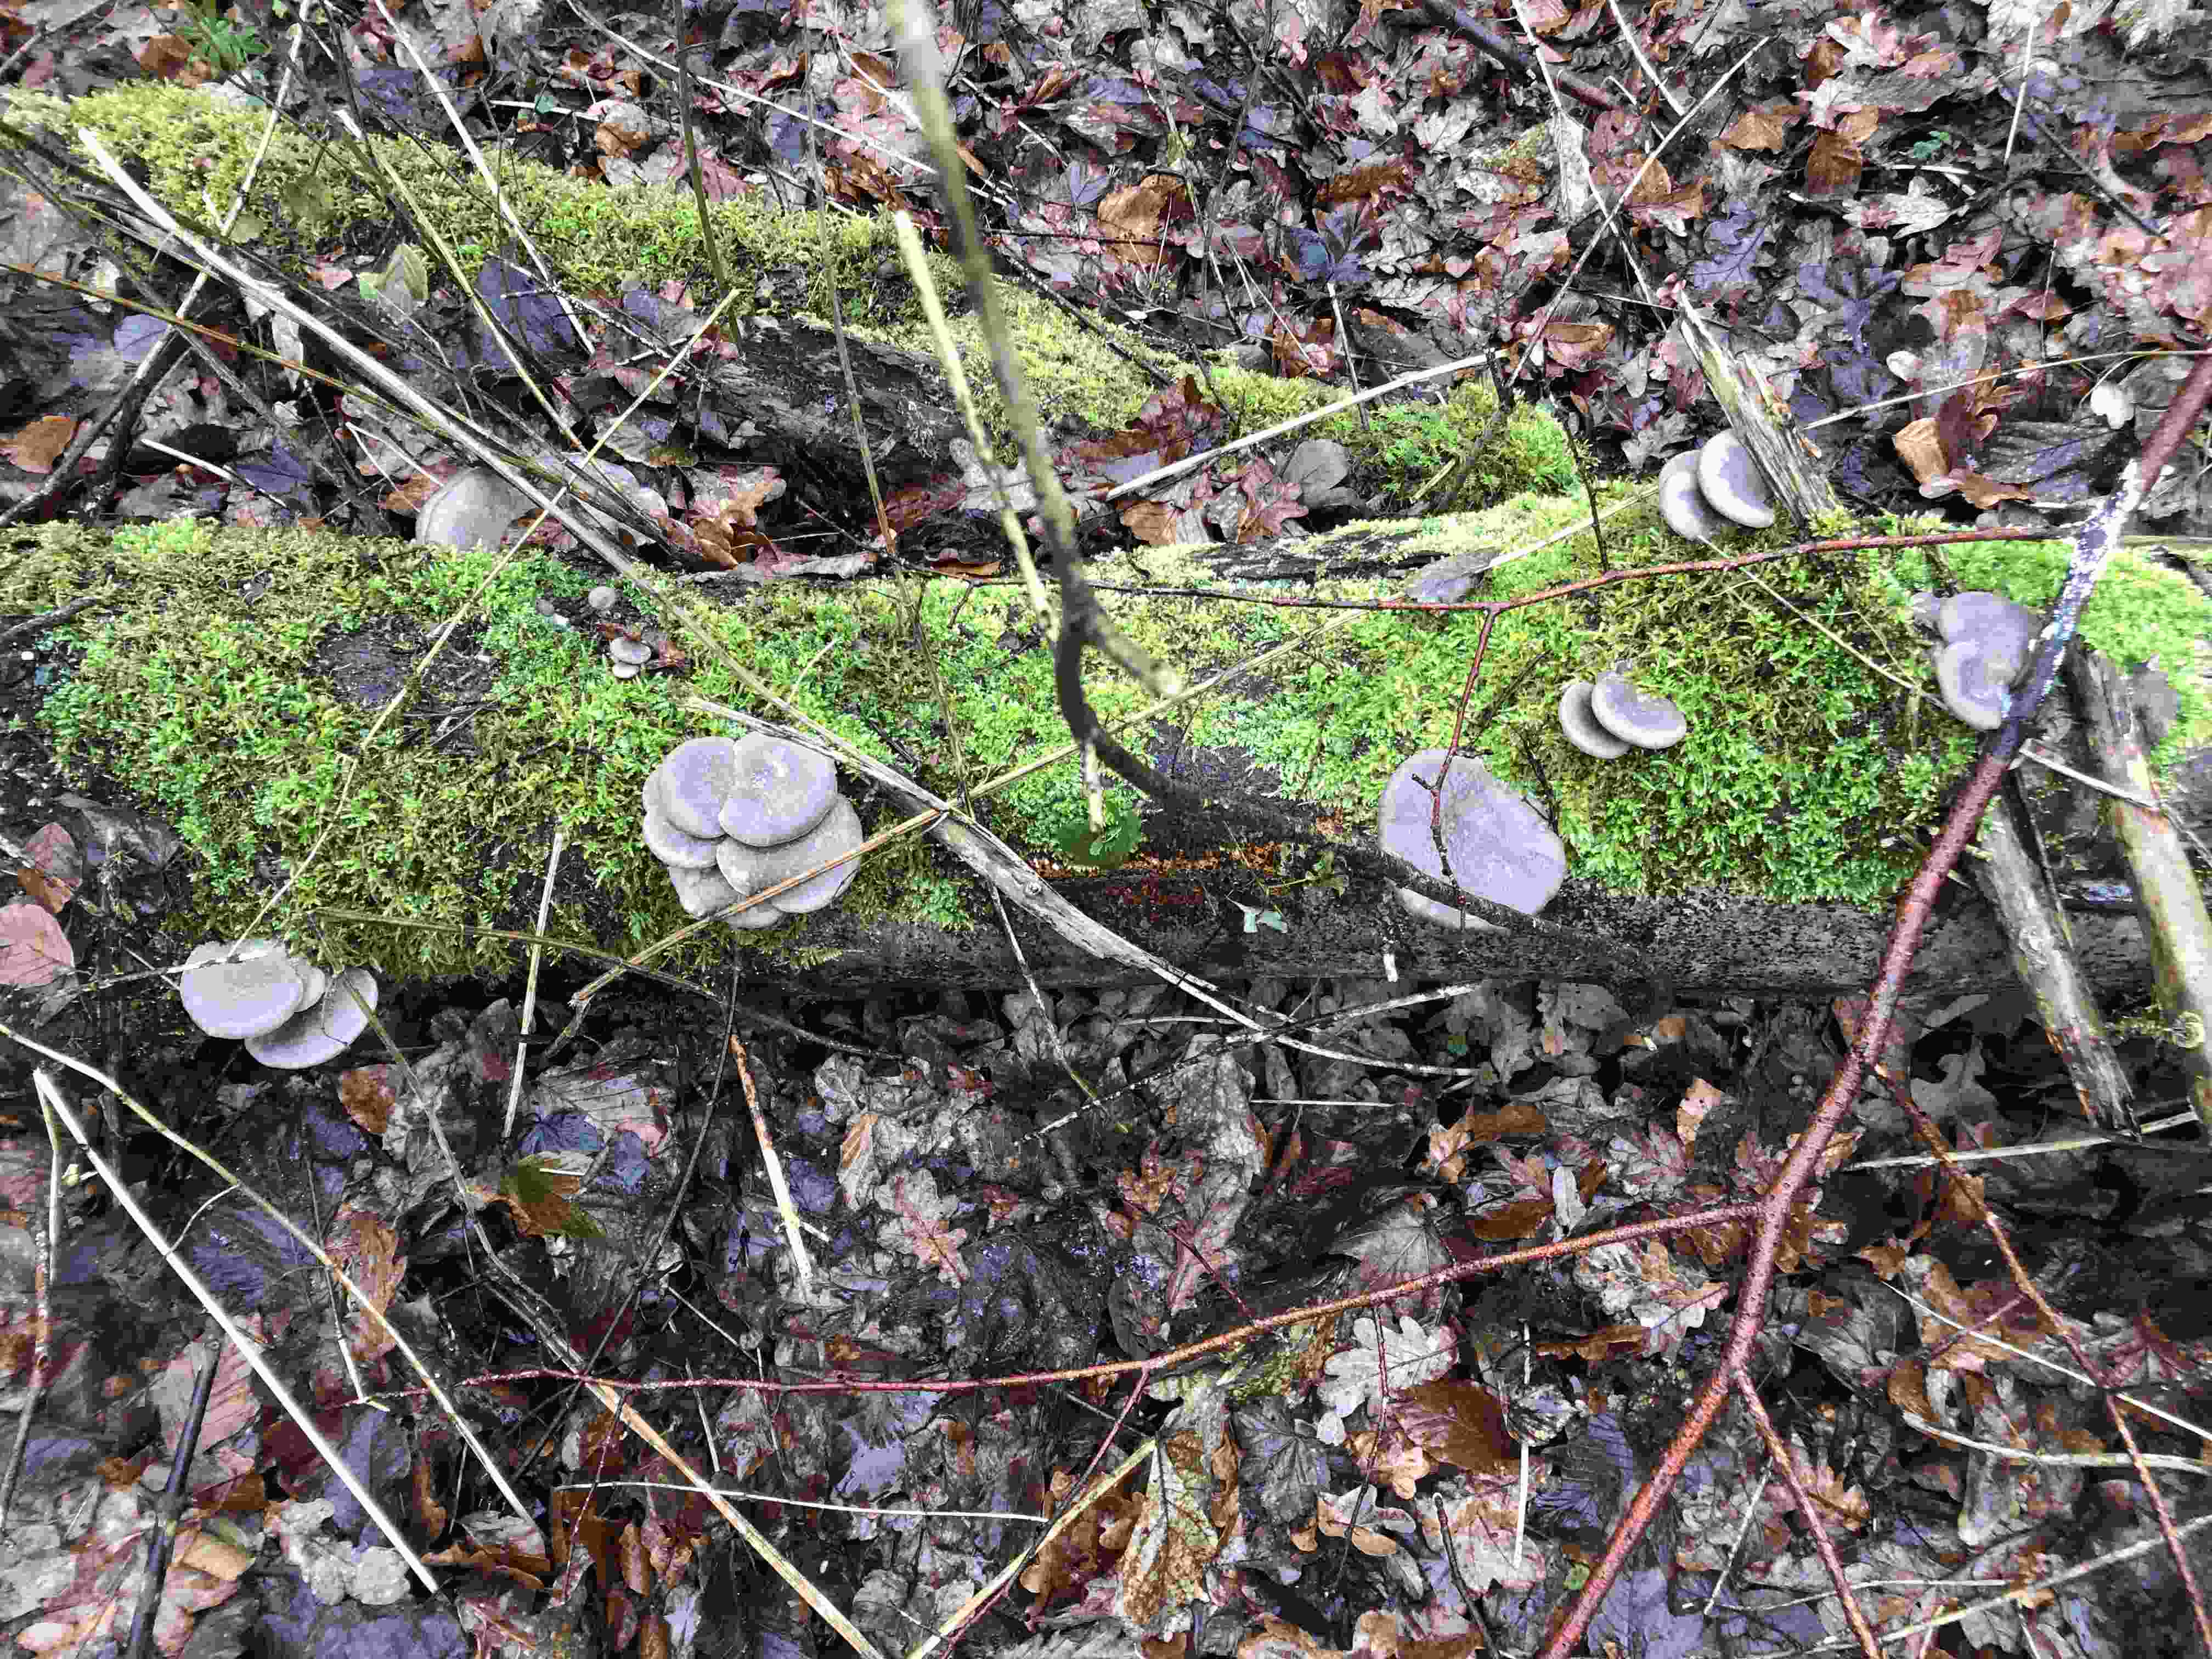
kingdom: Fungi
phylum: Basidiomycota
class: Agaricomycetes
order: Agaricales
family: Pleurotaceae
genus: Pleurotus
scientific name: Pleurotus ostreatus
